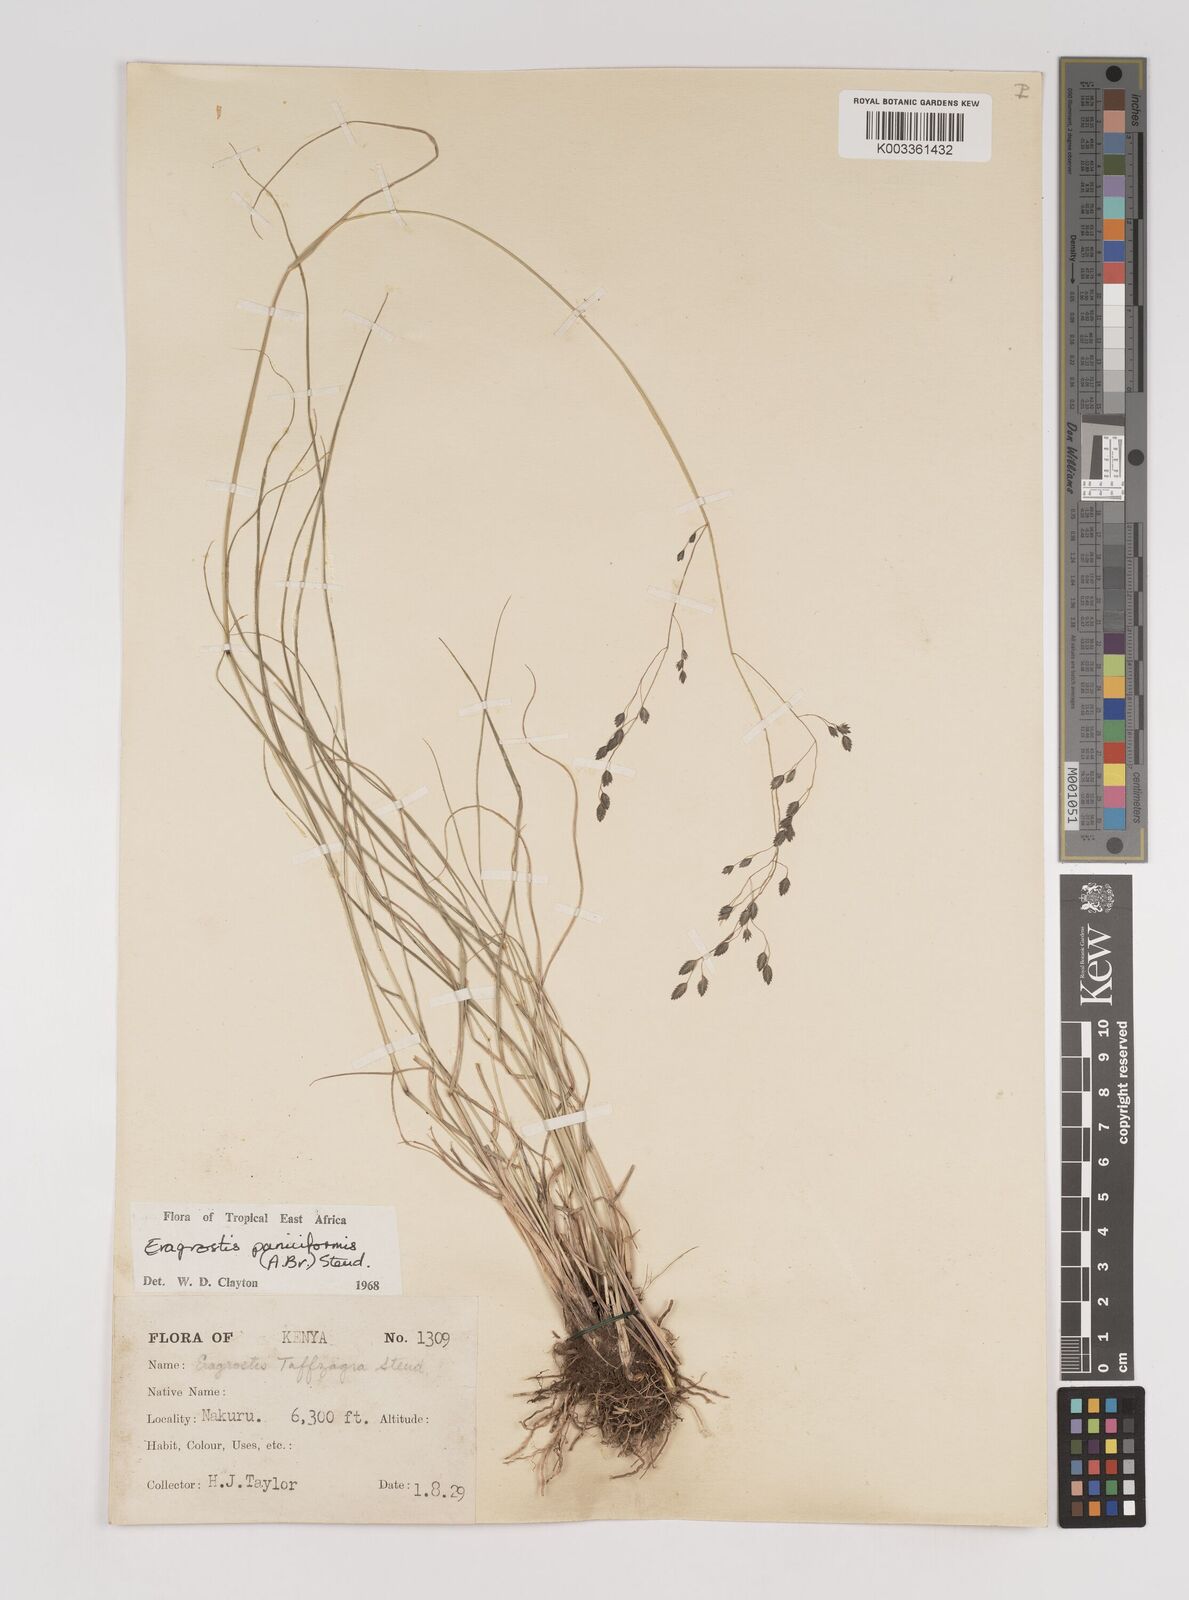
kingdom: Plantae
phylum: Tracheophyta
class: Liliopsida
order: Poales
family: Poaceae
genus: Eragrostis
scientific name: Eragrostis paniciformis
